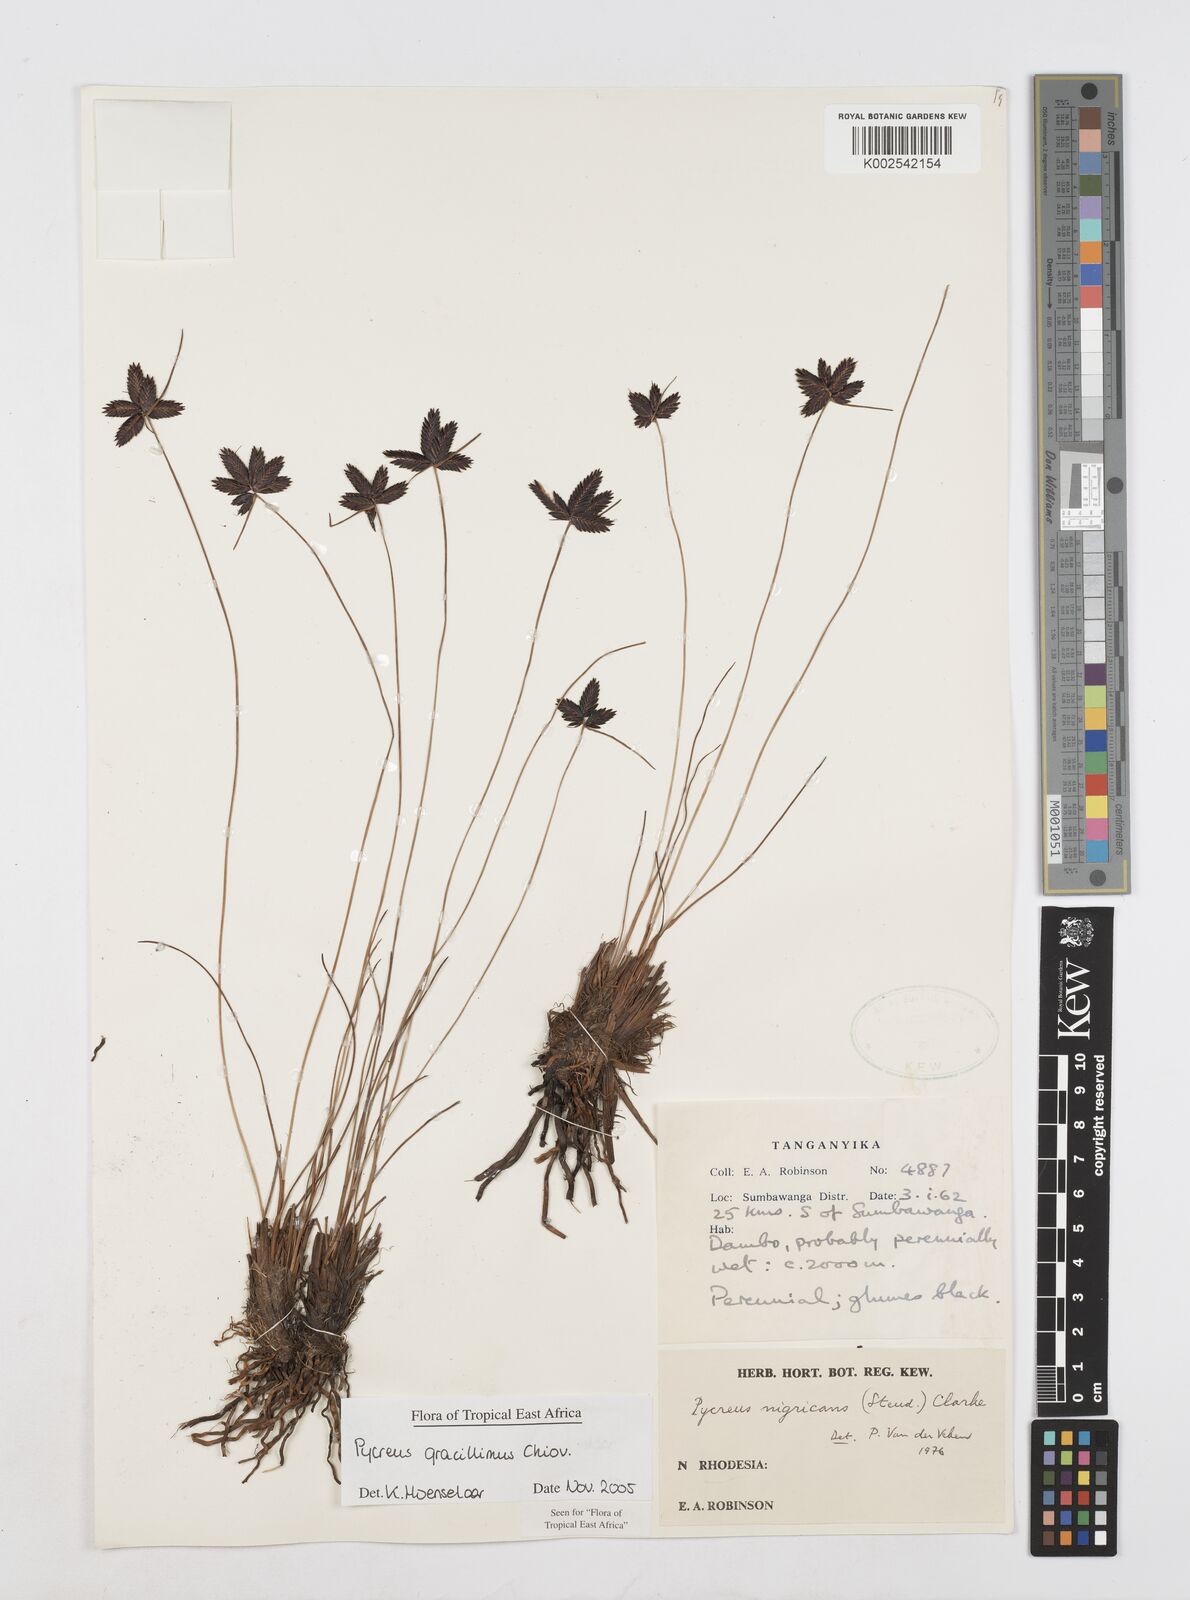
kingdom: Plantae
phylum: Tracheophyta
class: Liliopsida
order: Poales
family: Cyperaceae
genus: Cyperus
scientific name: Cyperus gracillimus
